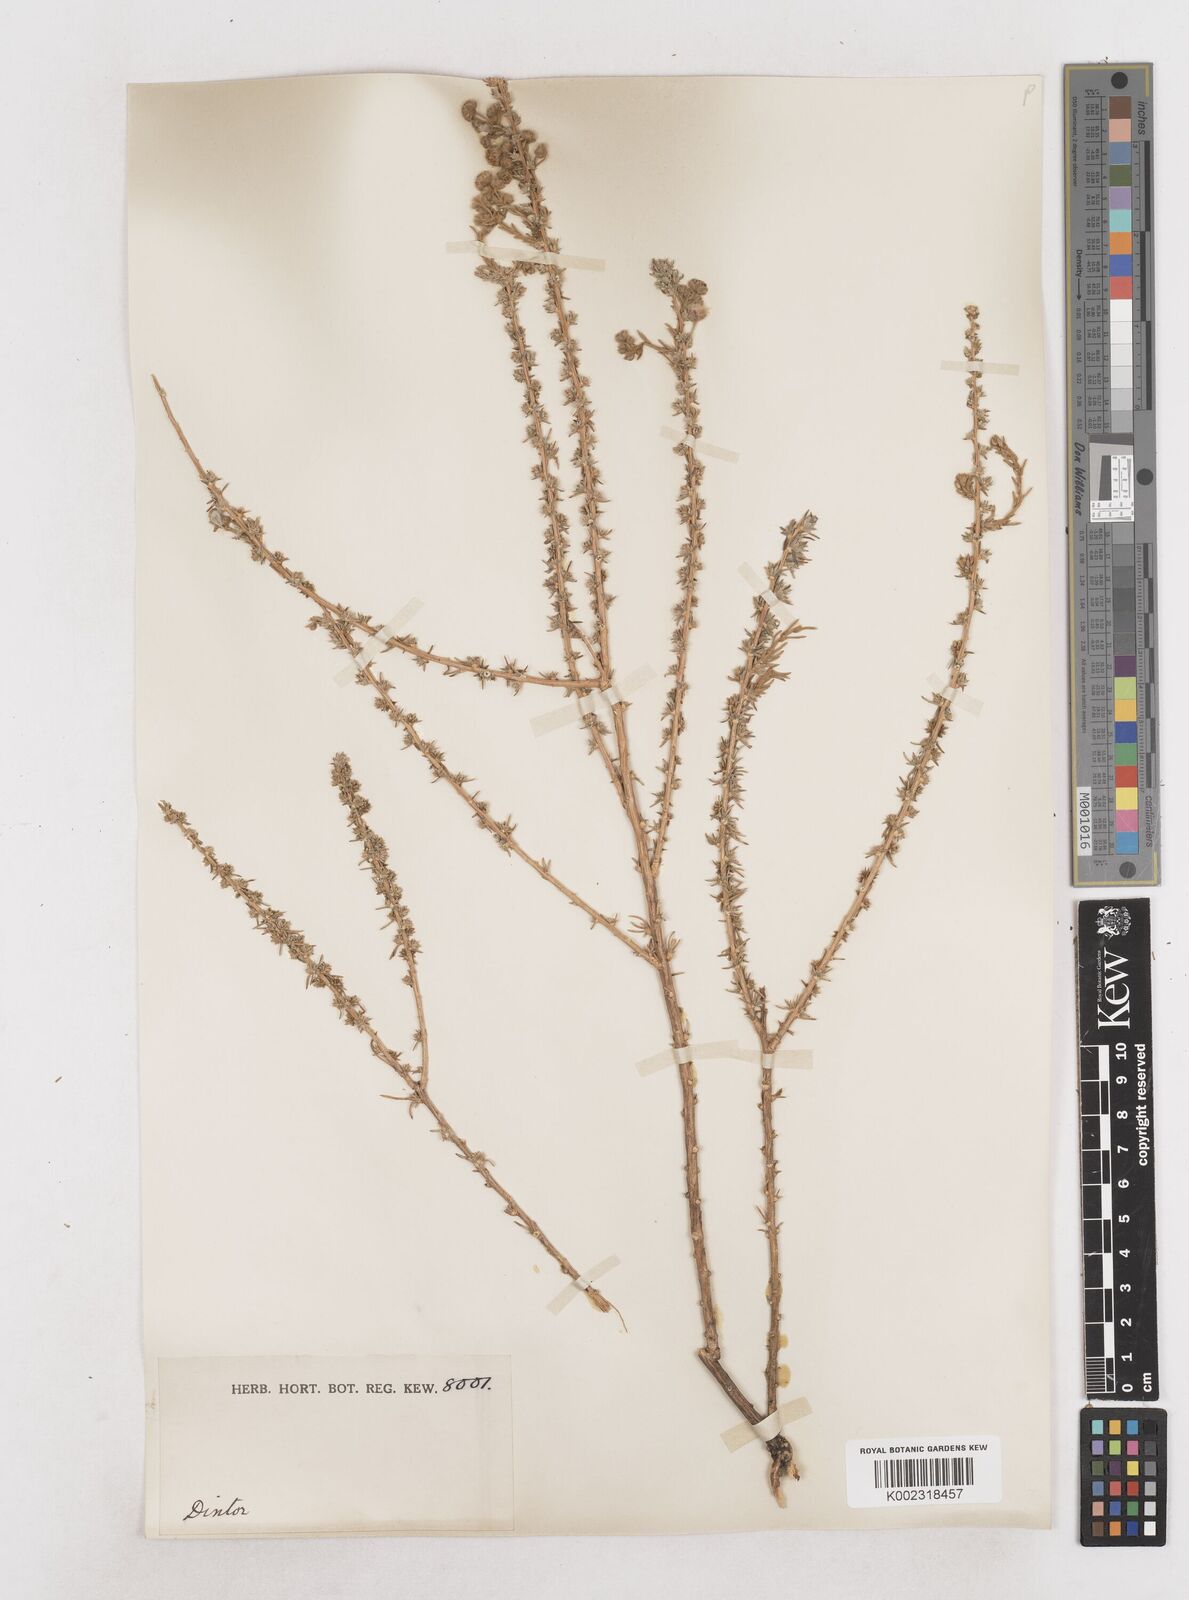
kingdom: Plantae
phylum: Tracheophyta
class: Magnoliopsida
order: Asterales
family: Asteraceae
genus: Eriocephalus
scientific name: Eriocephalus
